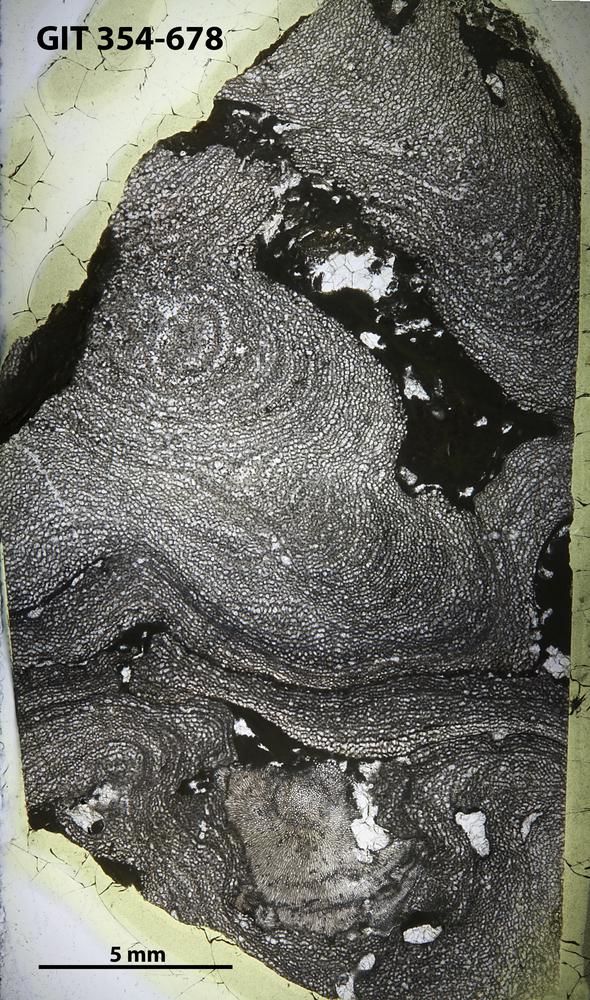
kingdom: Animalia
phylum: Porifera
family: Densastromatidae
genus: Araneosustroma
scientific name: Araneosustroma
